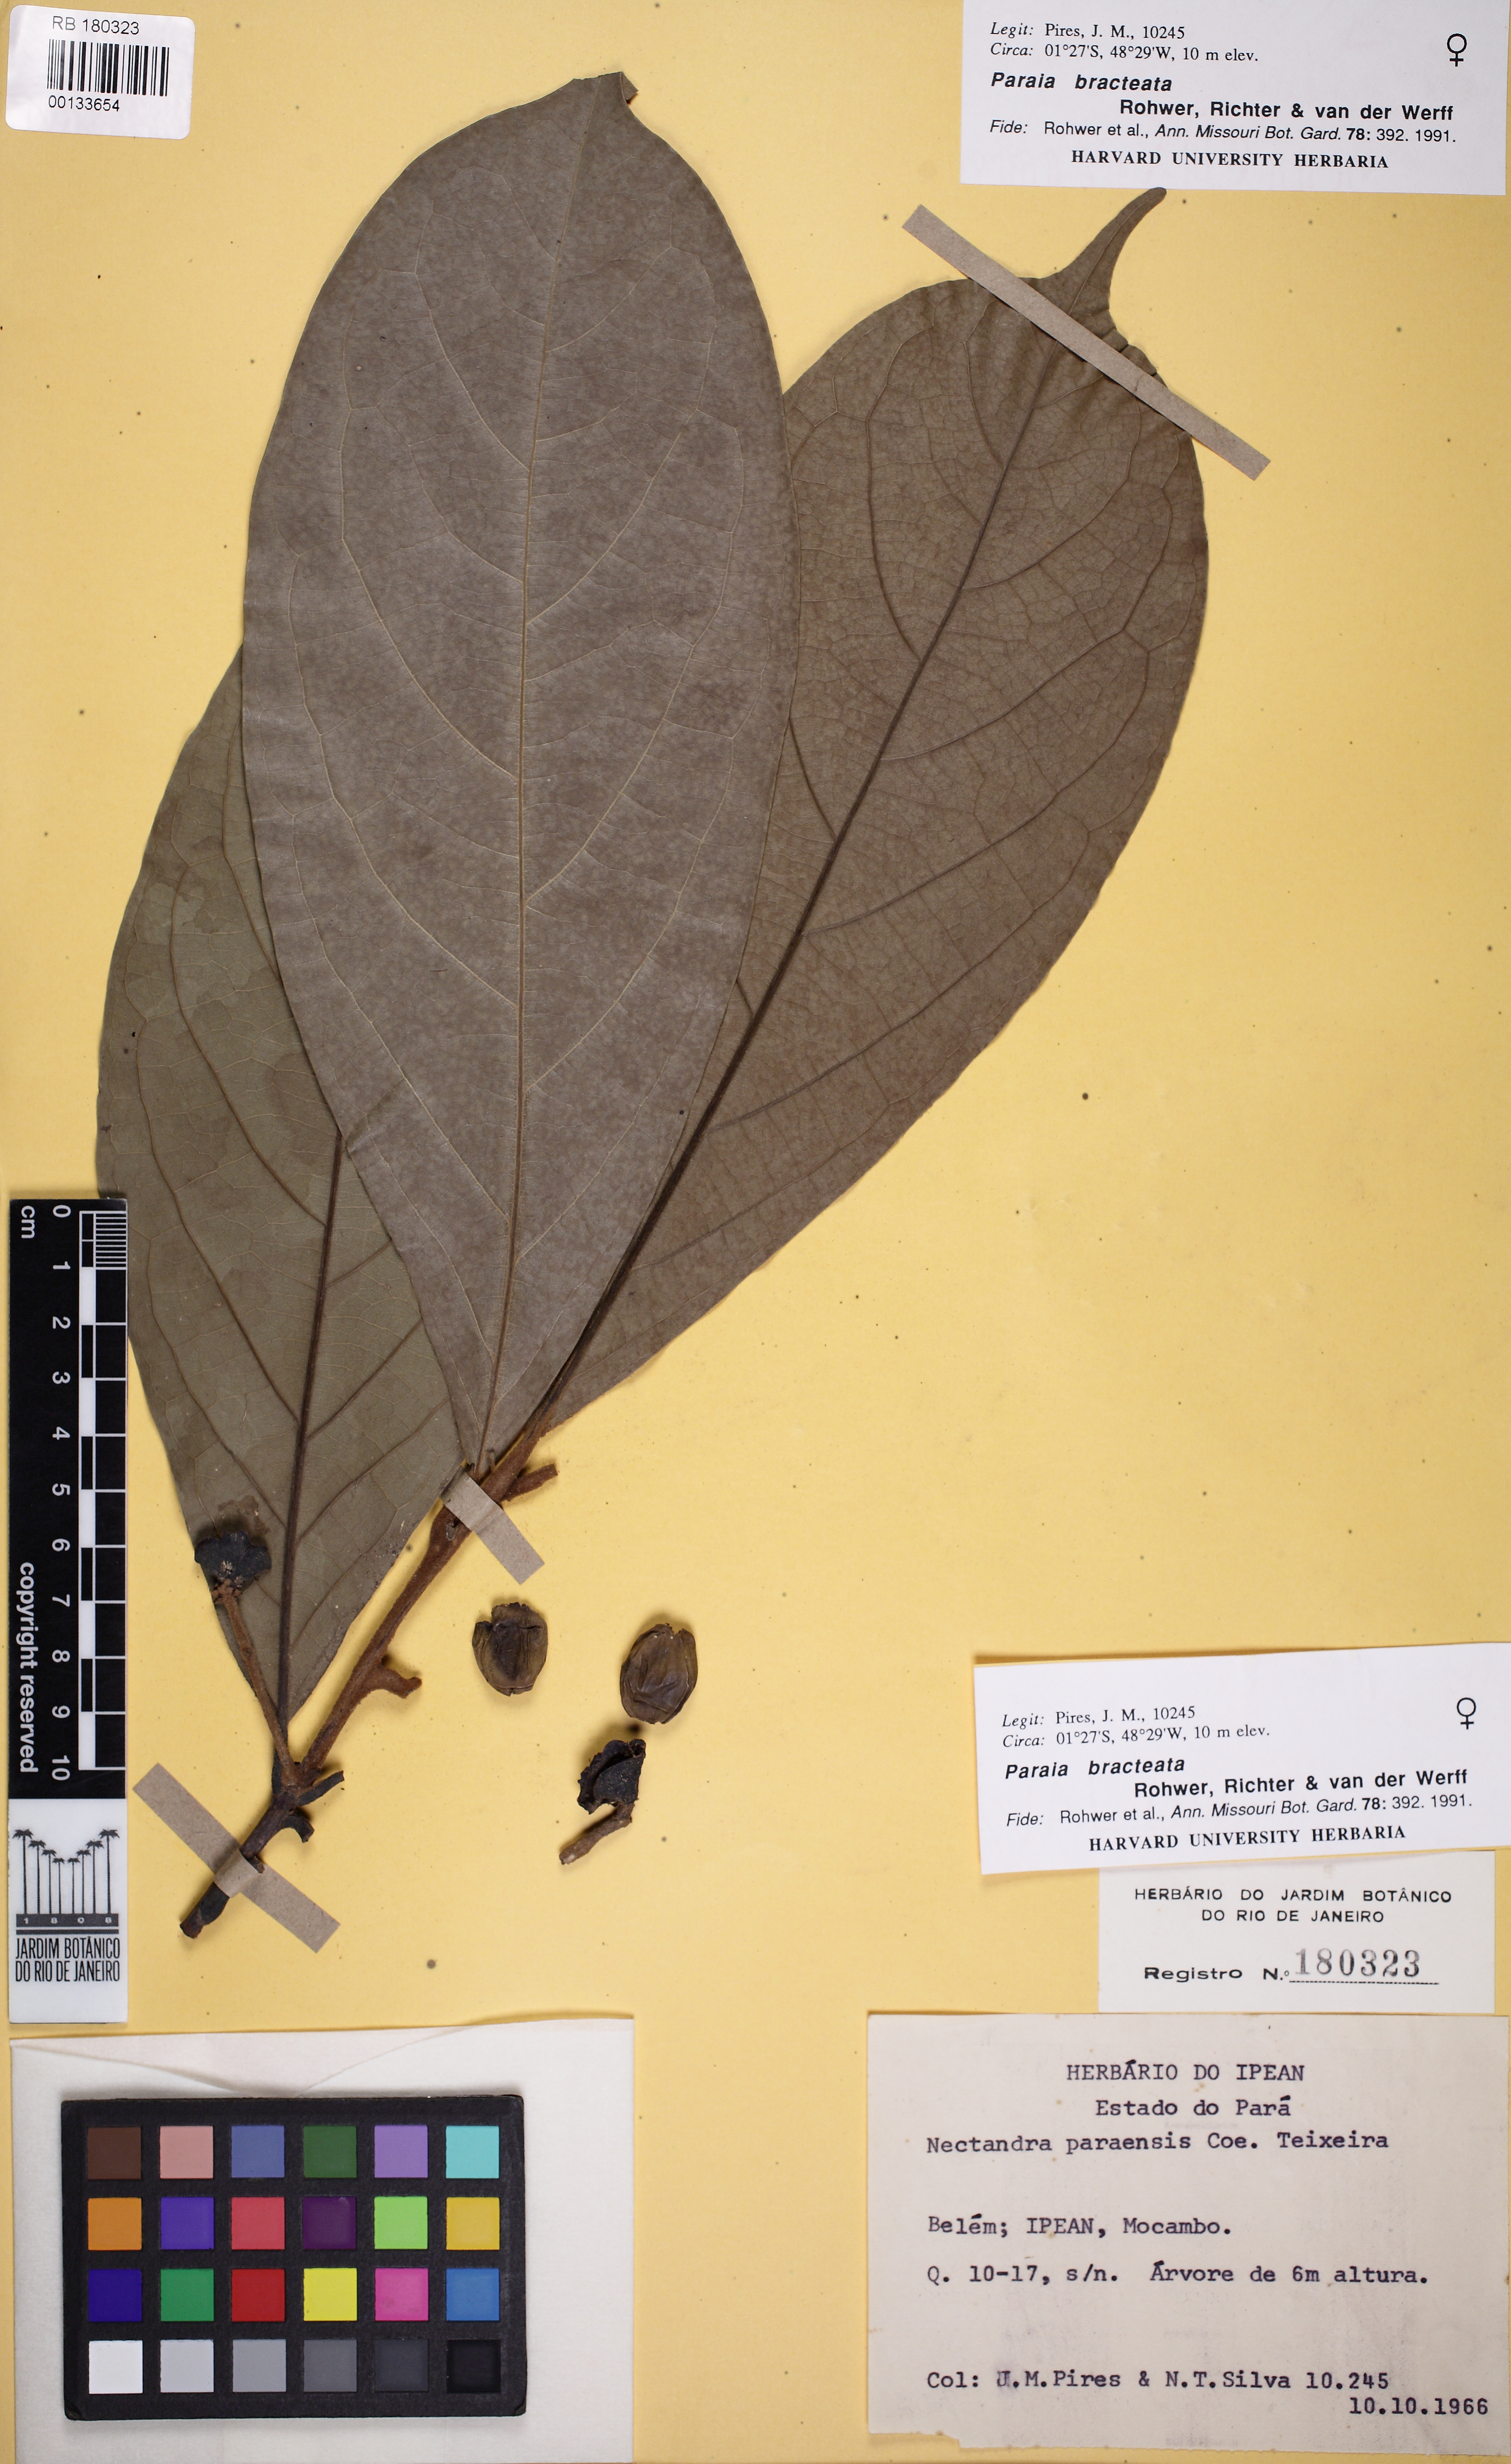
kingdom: Plantae
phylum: Tracheophyta
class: Magnoliopsida
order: Laurales
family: Lauraceae
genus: Paraia
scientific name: Paraia bracteata
